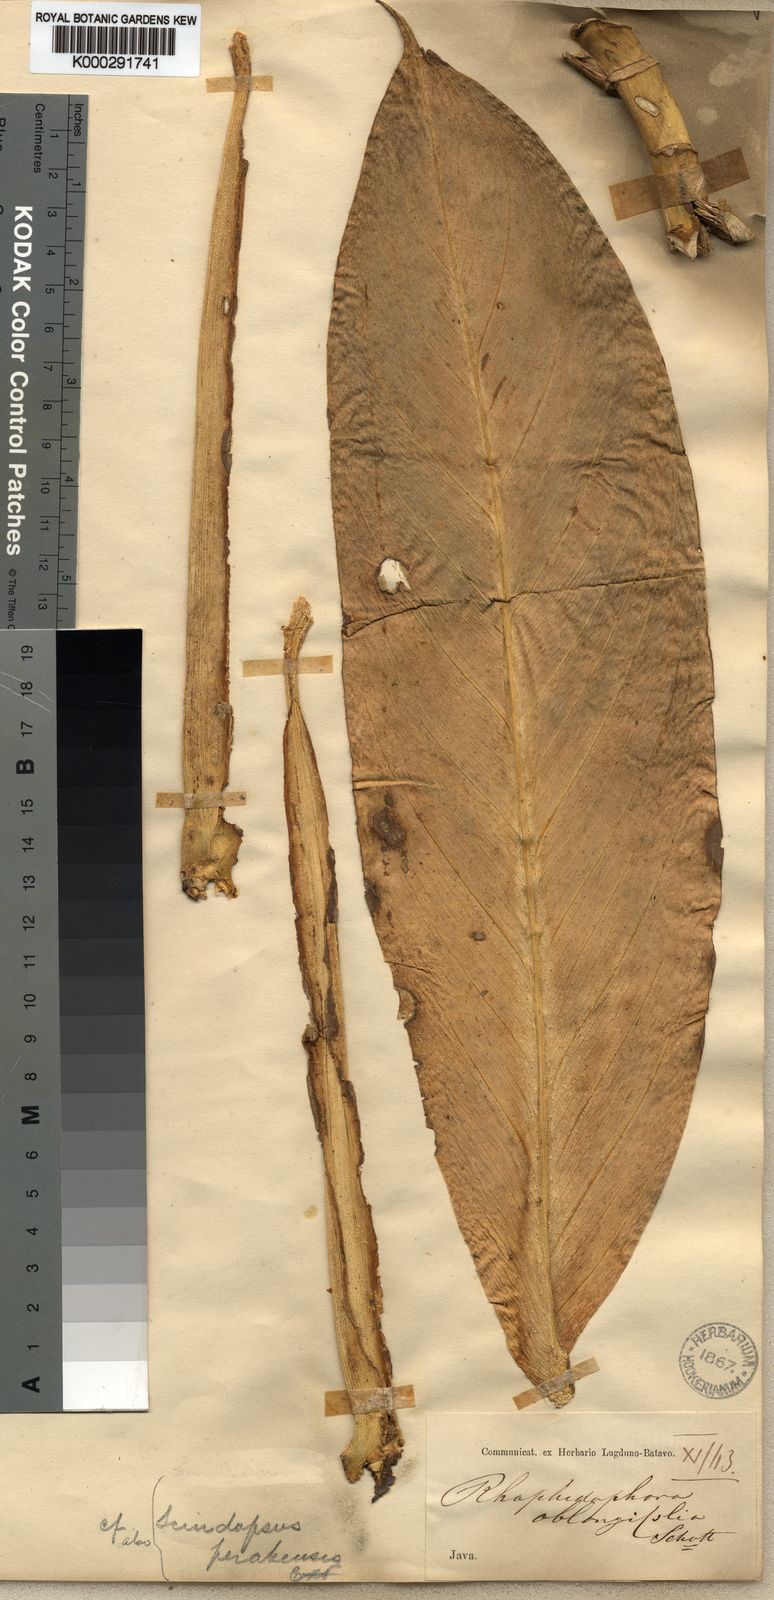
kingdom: Plantae
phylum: Tracheophyta
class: Liliopsida
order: Alismatales
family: Araceae
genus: Scindapsus
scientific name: Scindapsus perakensis
